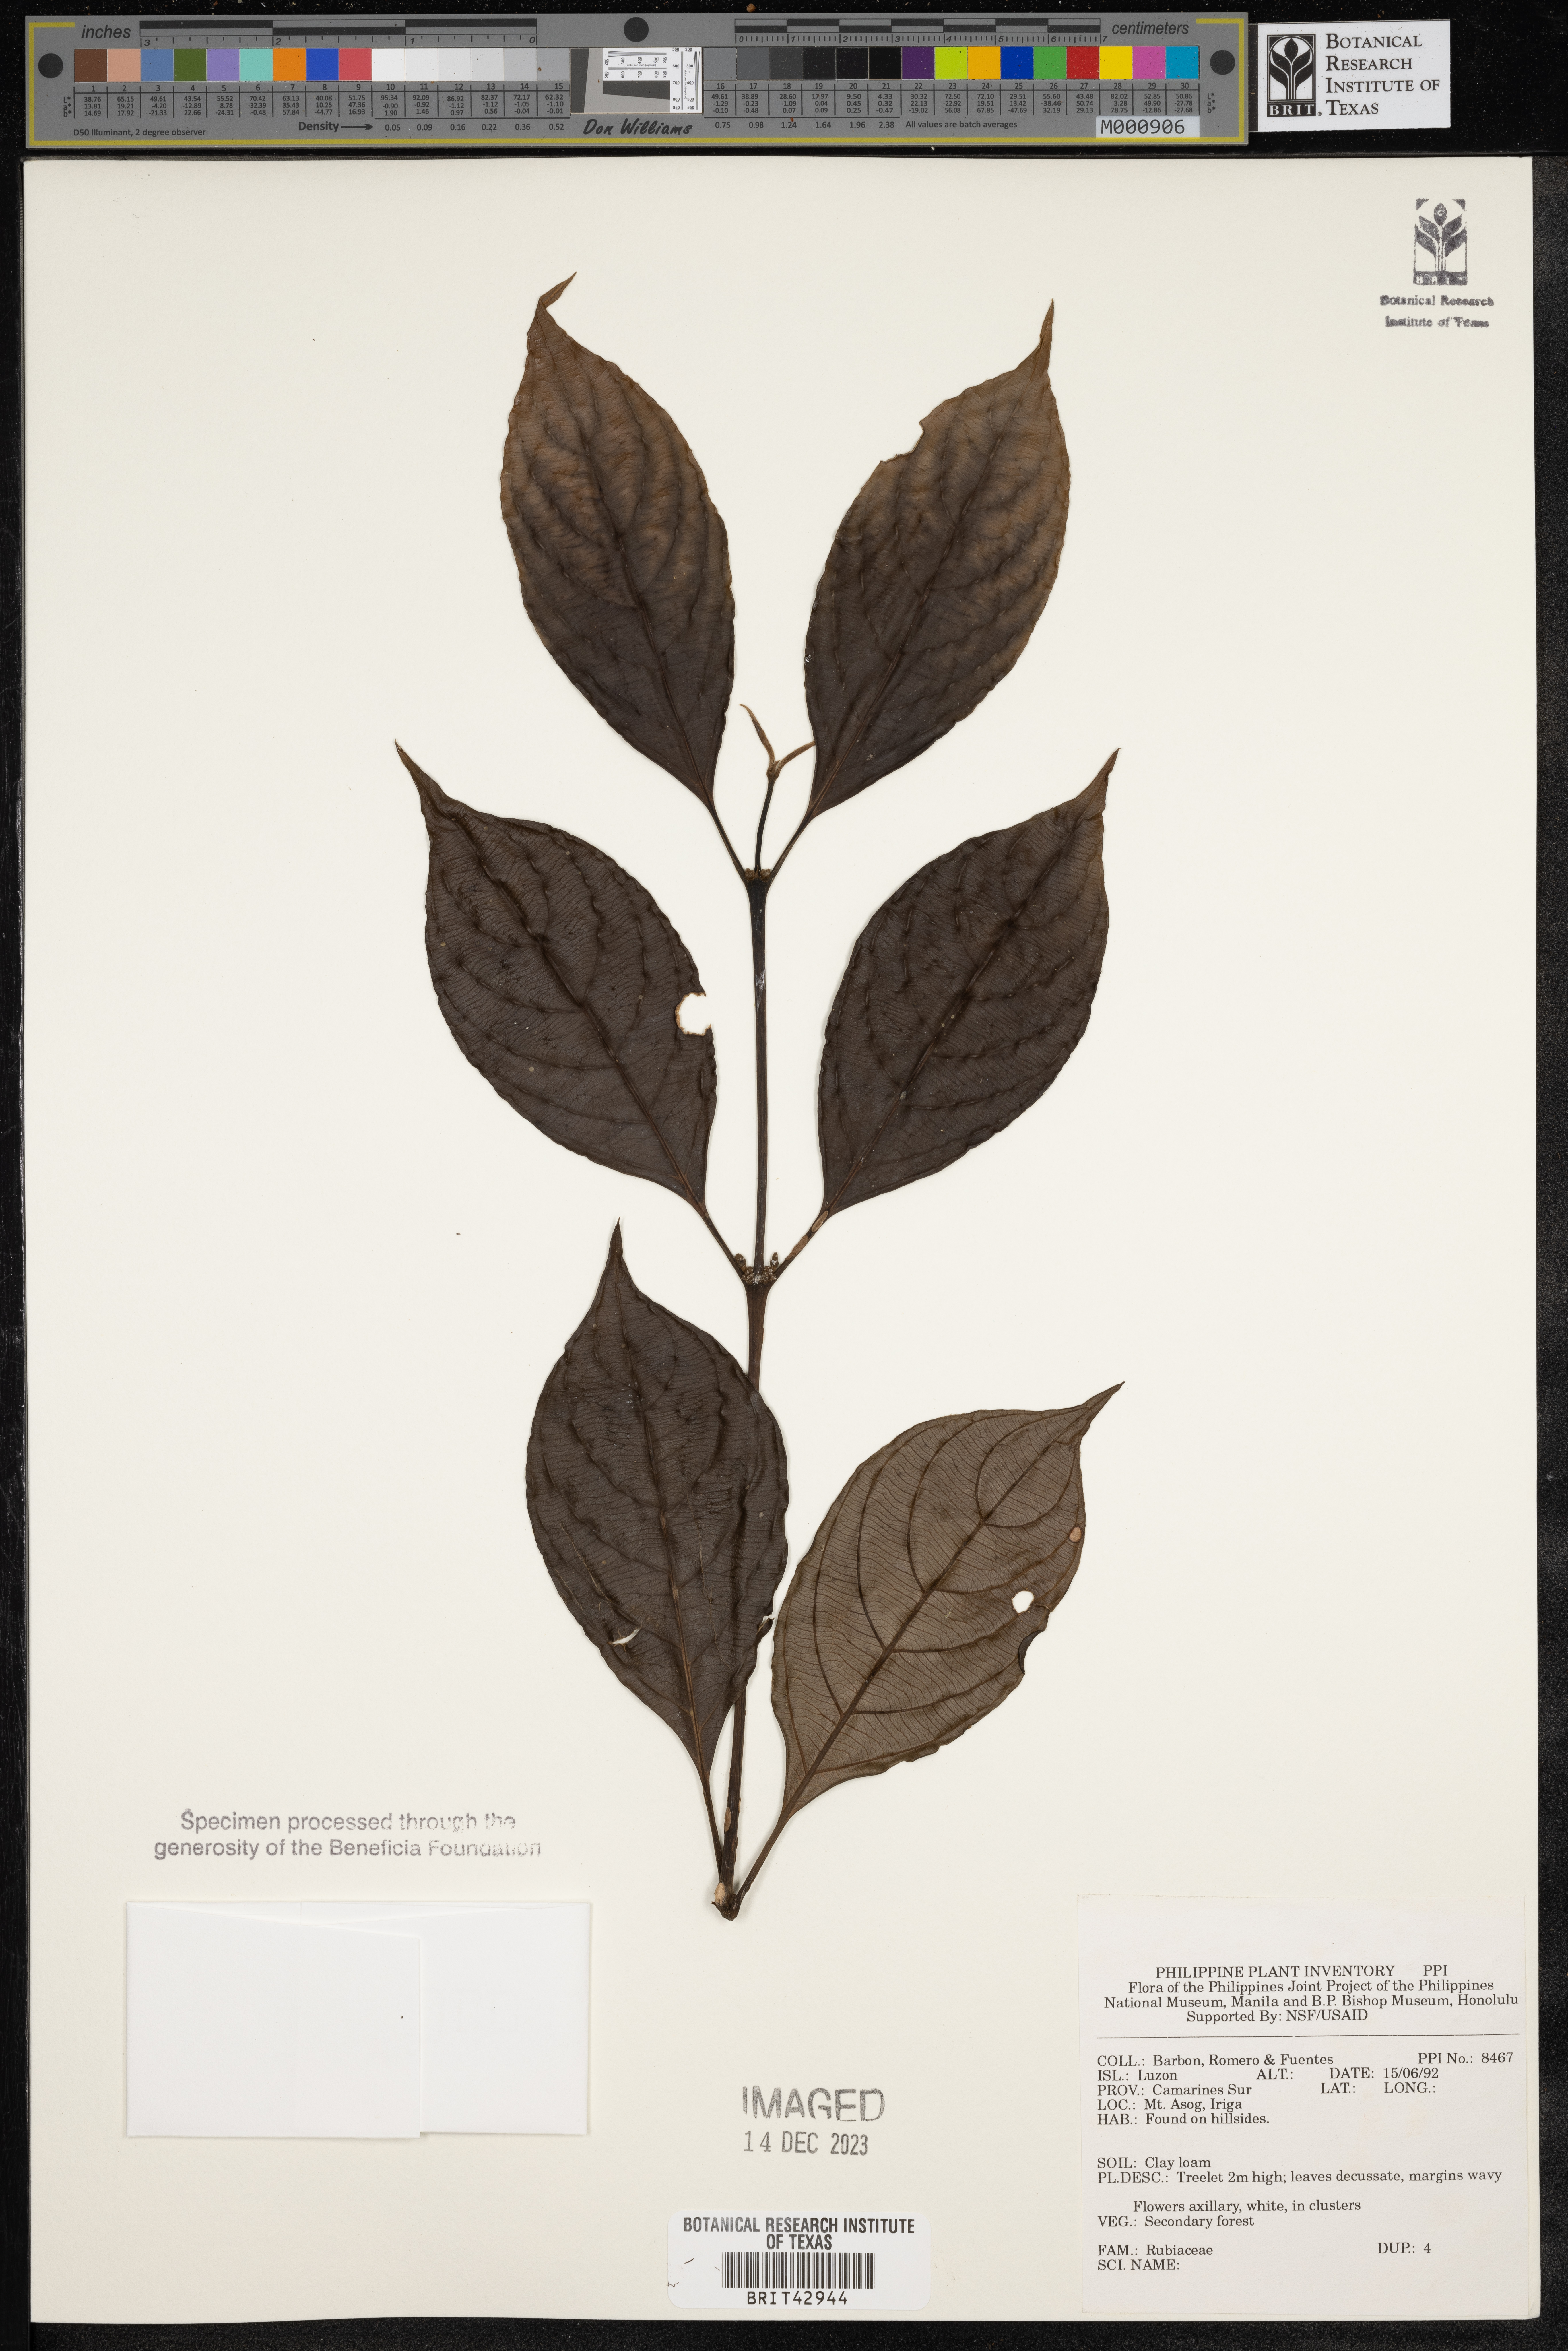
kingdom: Plantae
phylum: Tracheophyta
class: Magnoliopsida
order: Gentianales
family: Rubiaceae
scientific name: Rubiaceae
